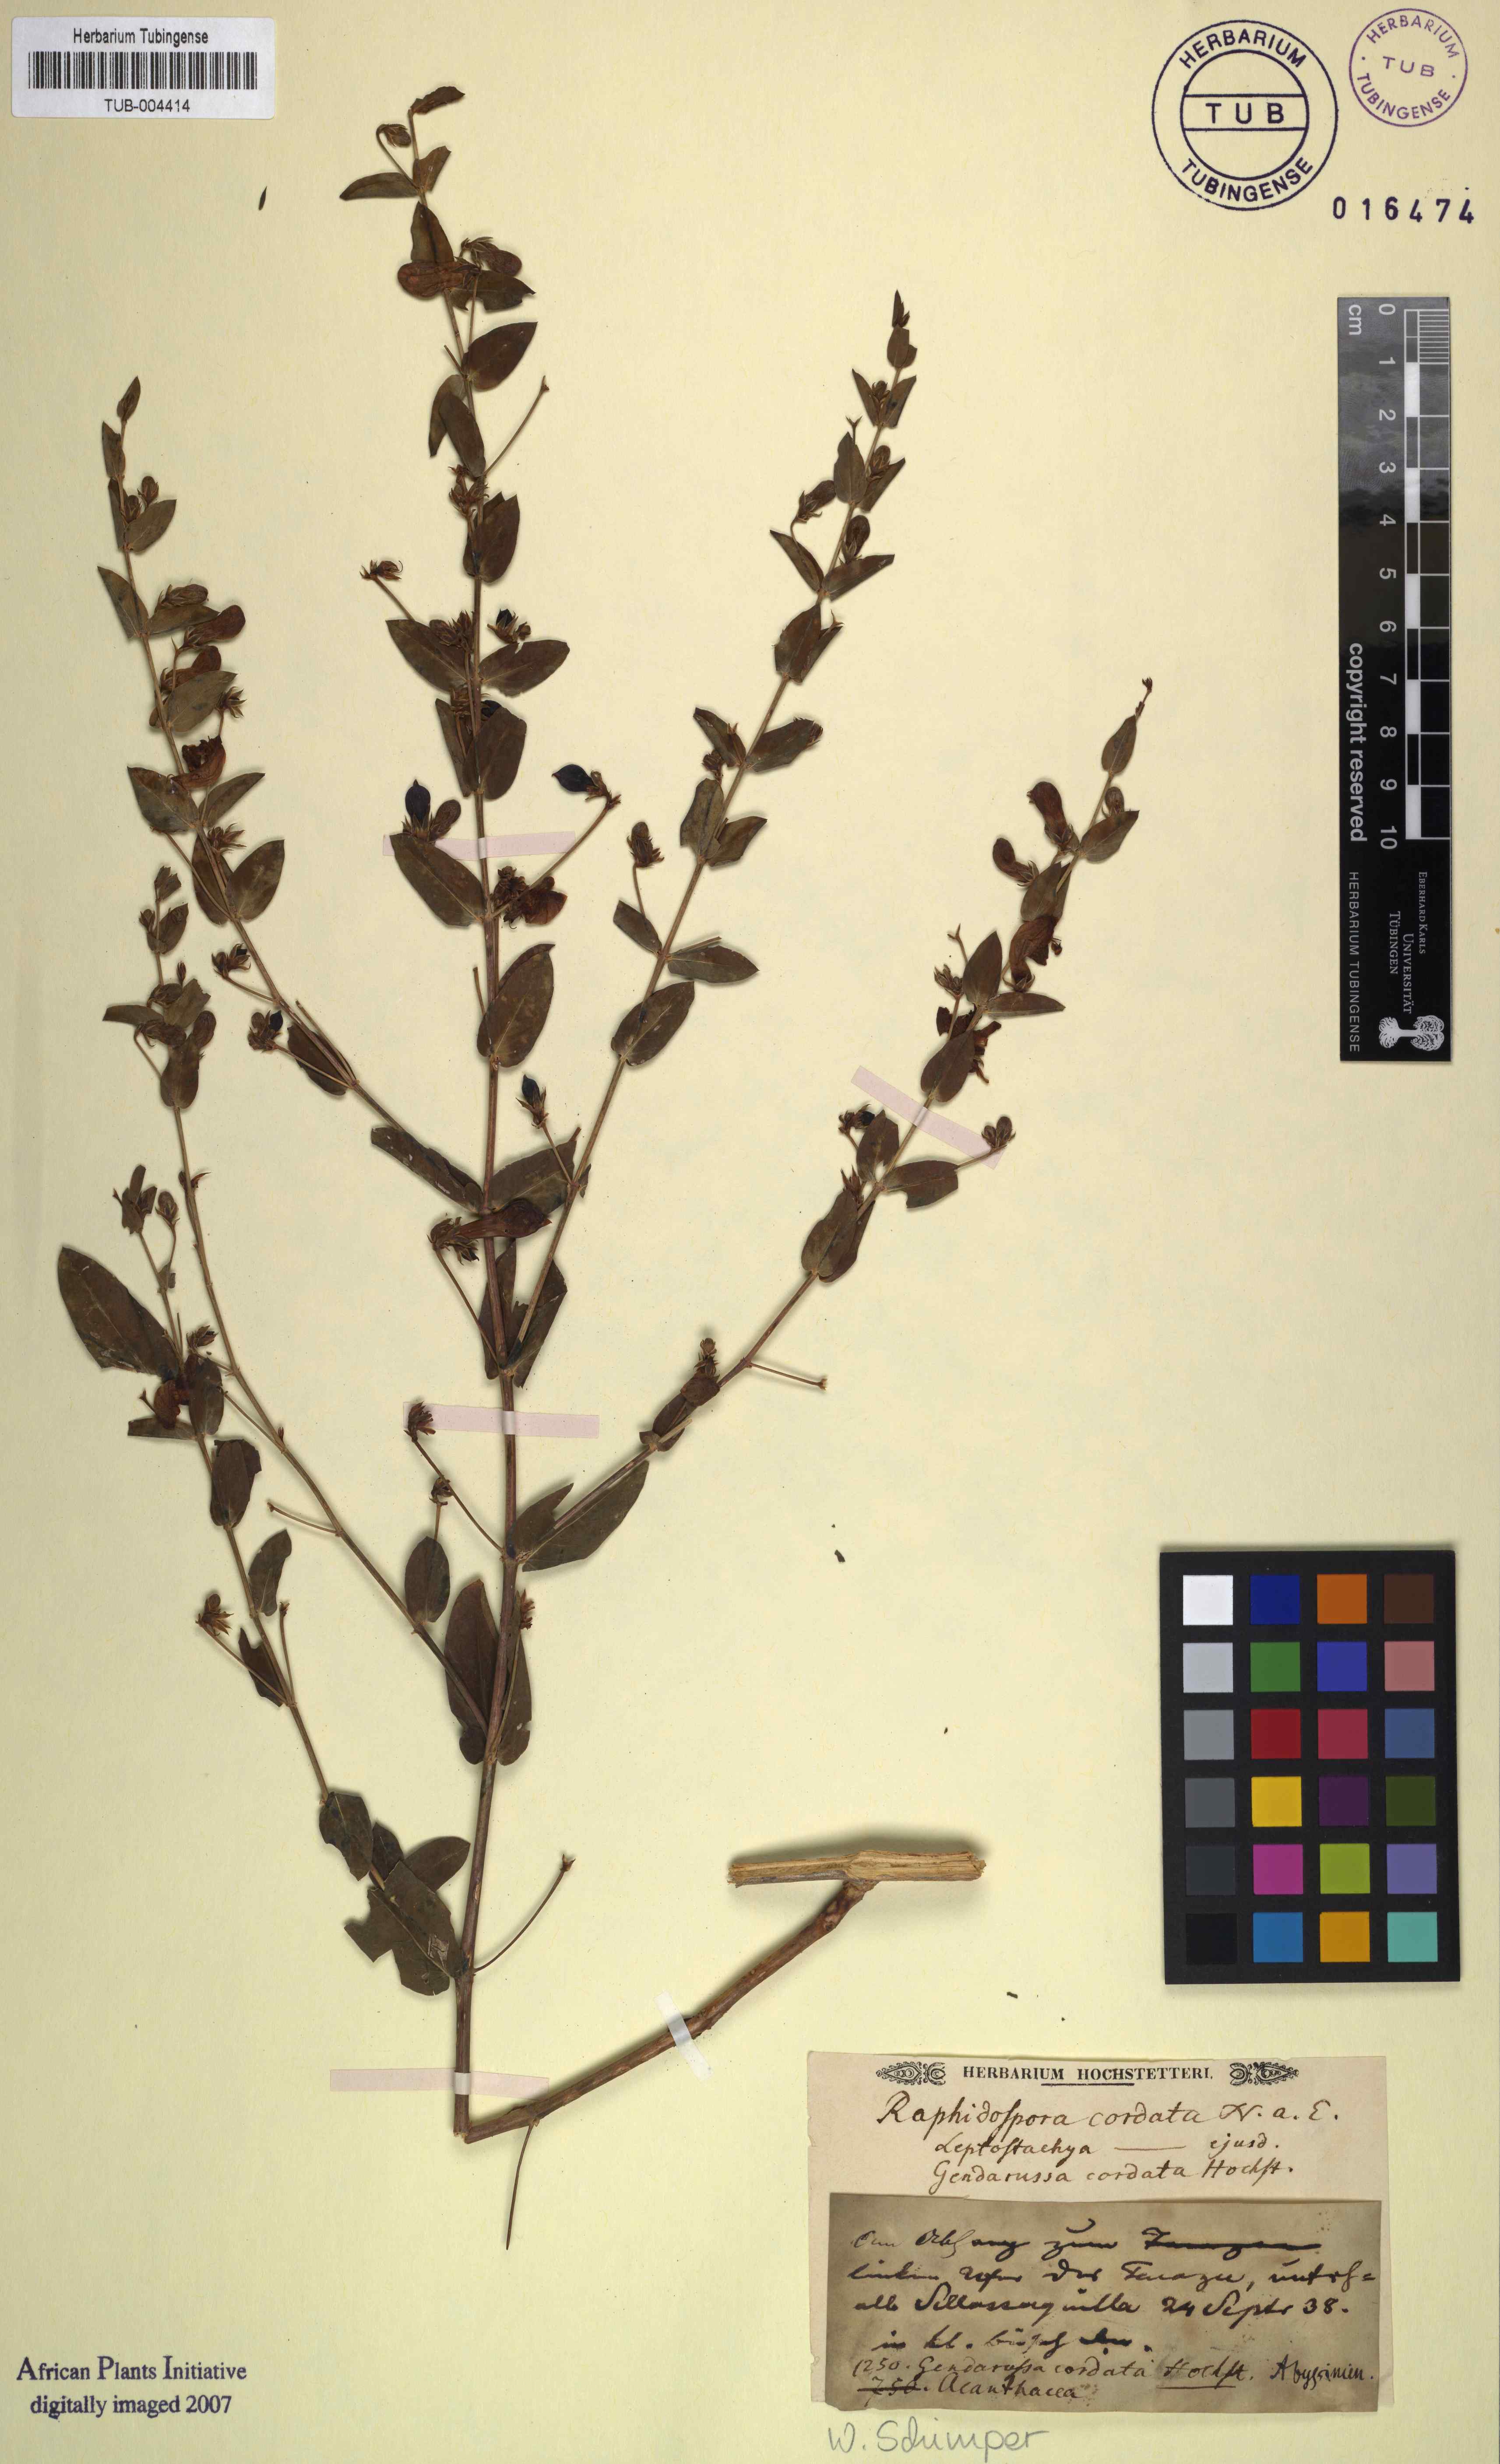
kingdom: Plantae
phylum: Tracheophyta
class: Magnoliopsida
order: Lamiales
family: Acanthaceae
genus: Justicia
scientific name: Justicia cordata
